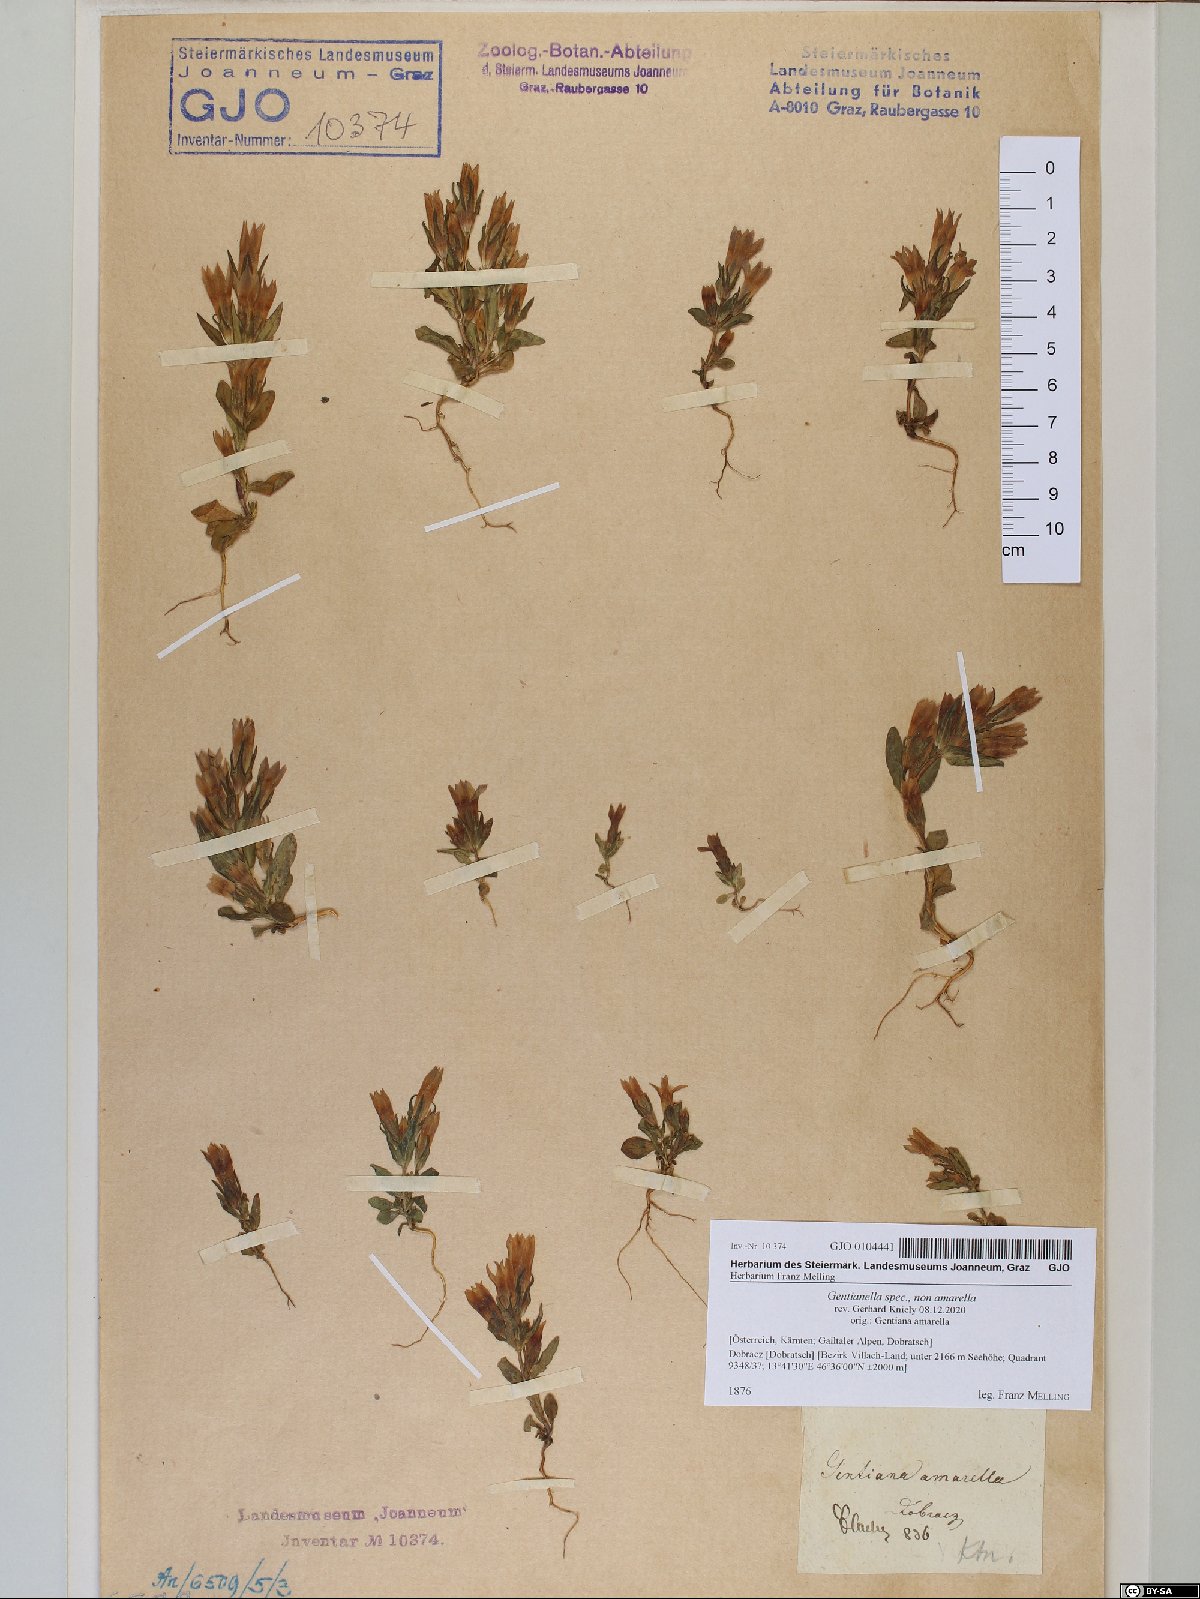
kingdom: Plantae
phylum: Tracheophyta
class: Magnoliopsida
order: Gentianales
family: Gentianaceae
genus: Gentianella
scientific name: Gentianella
